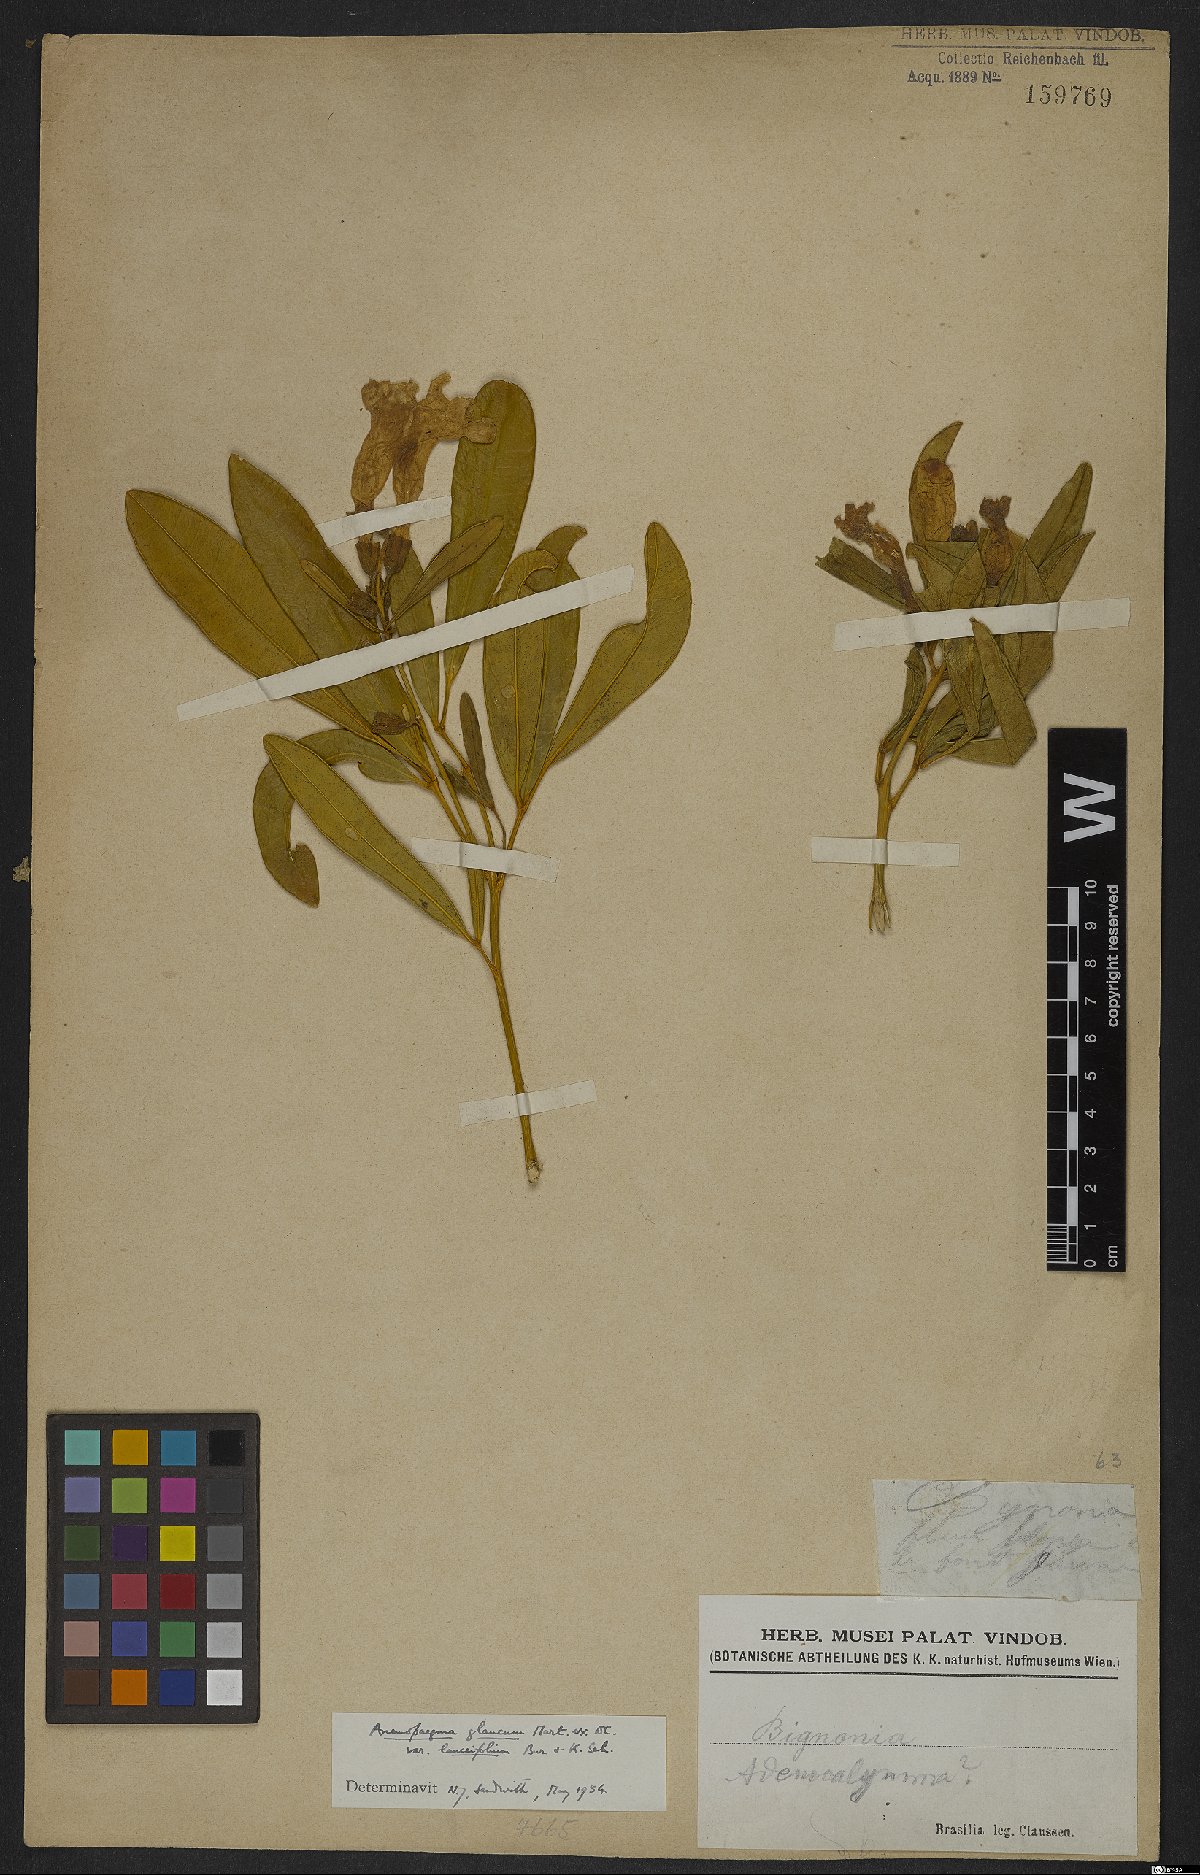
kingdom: Plantae
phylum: Tracheophyta
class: Magnoliopsida
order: Lamiales
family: Bignoniaceae
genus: Anemopaegma
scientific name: Anemopaegma glaucum
